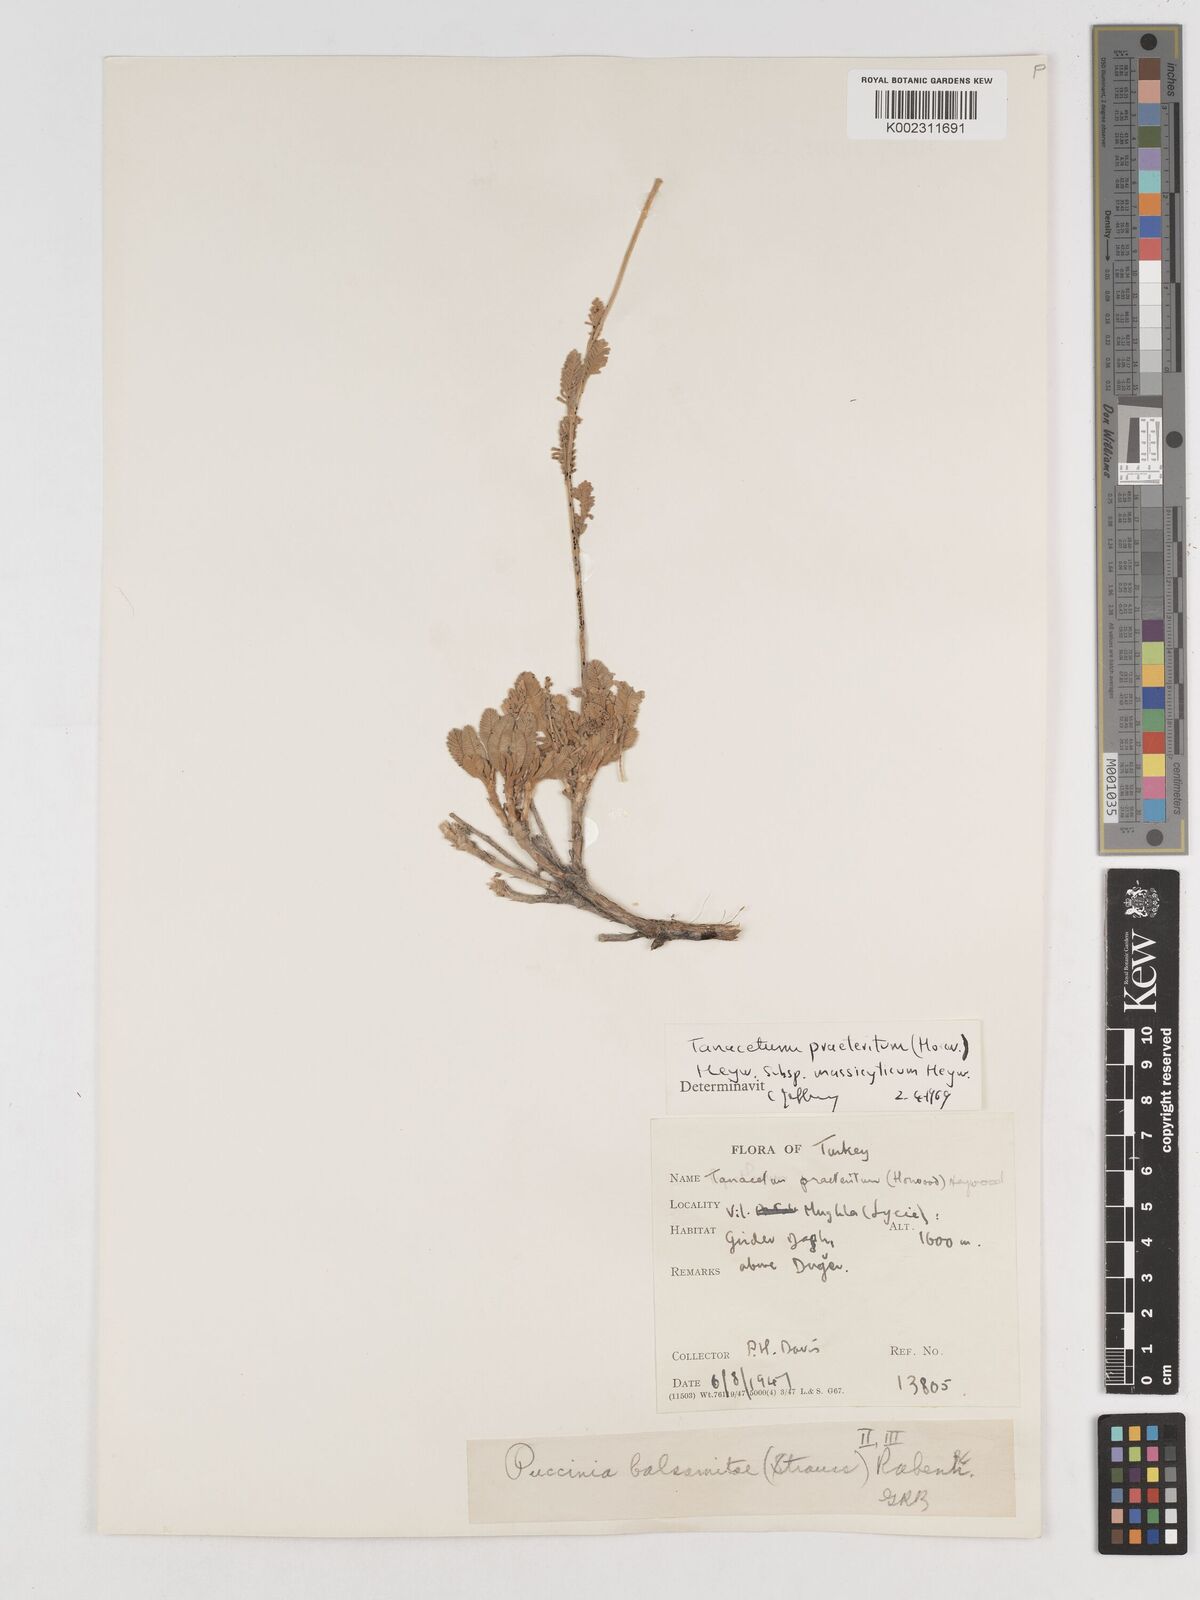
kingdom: Plantae
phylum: Tracheophyta
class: Magnoliopsida
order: Asterales
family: Asteraceae
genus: Tanacetum
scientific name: Tanacetum praeteritum
